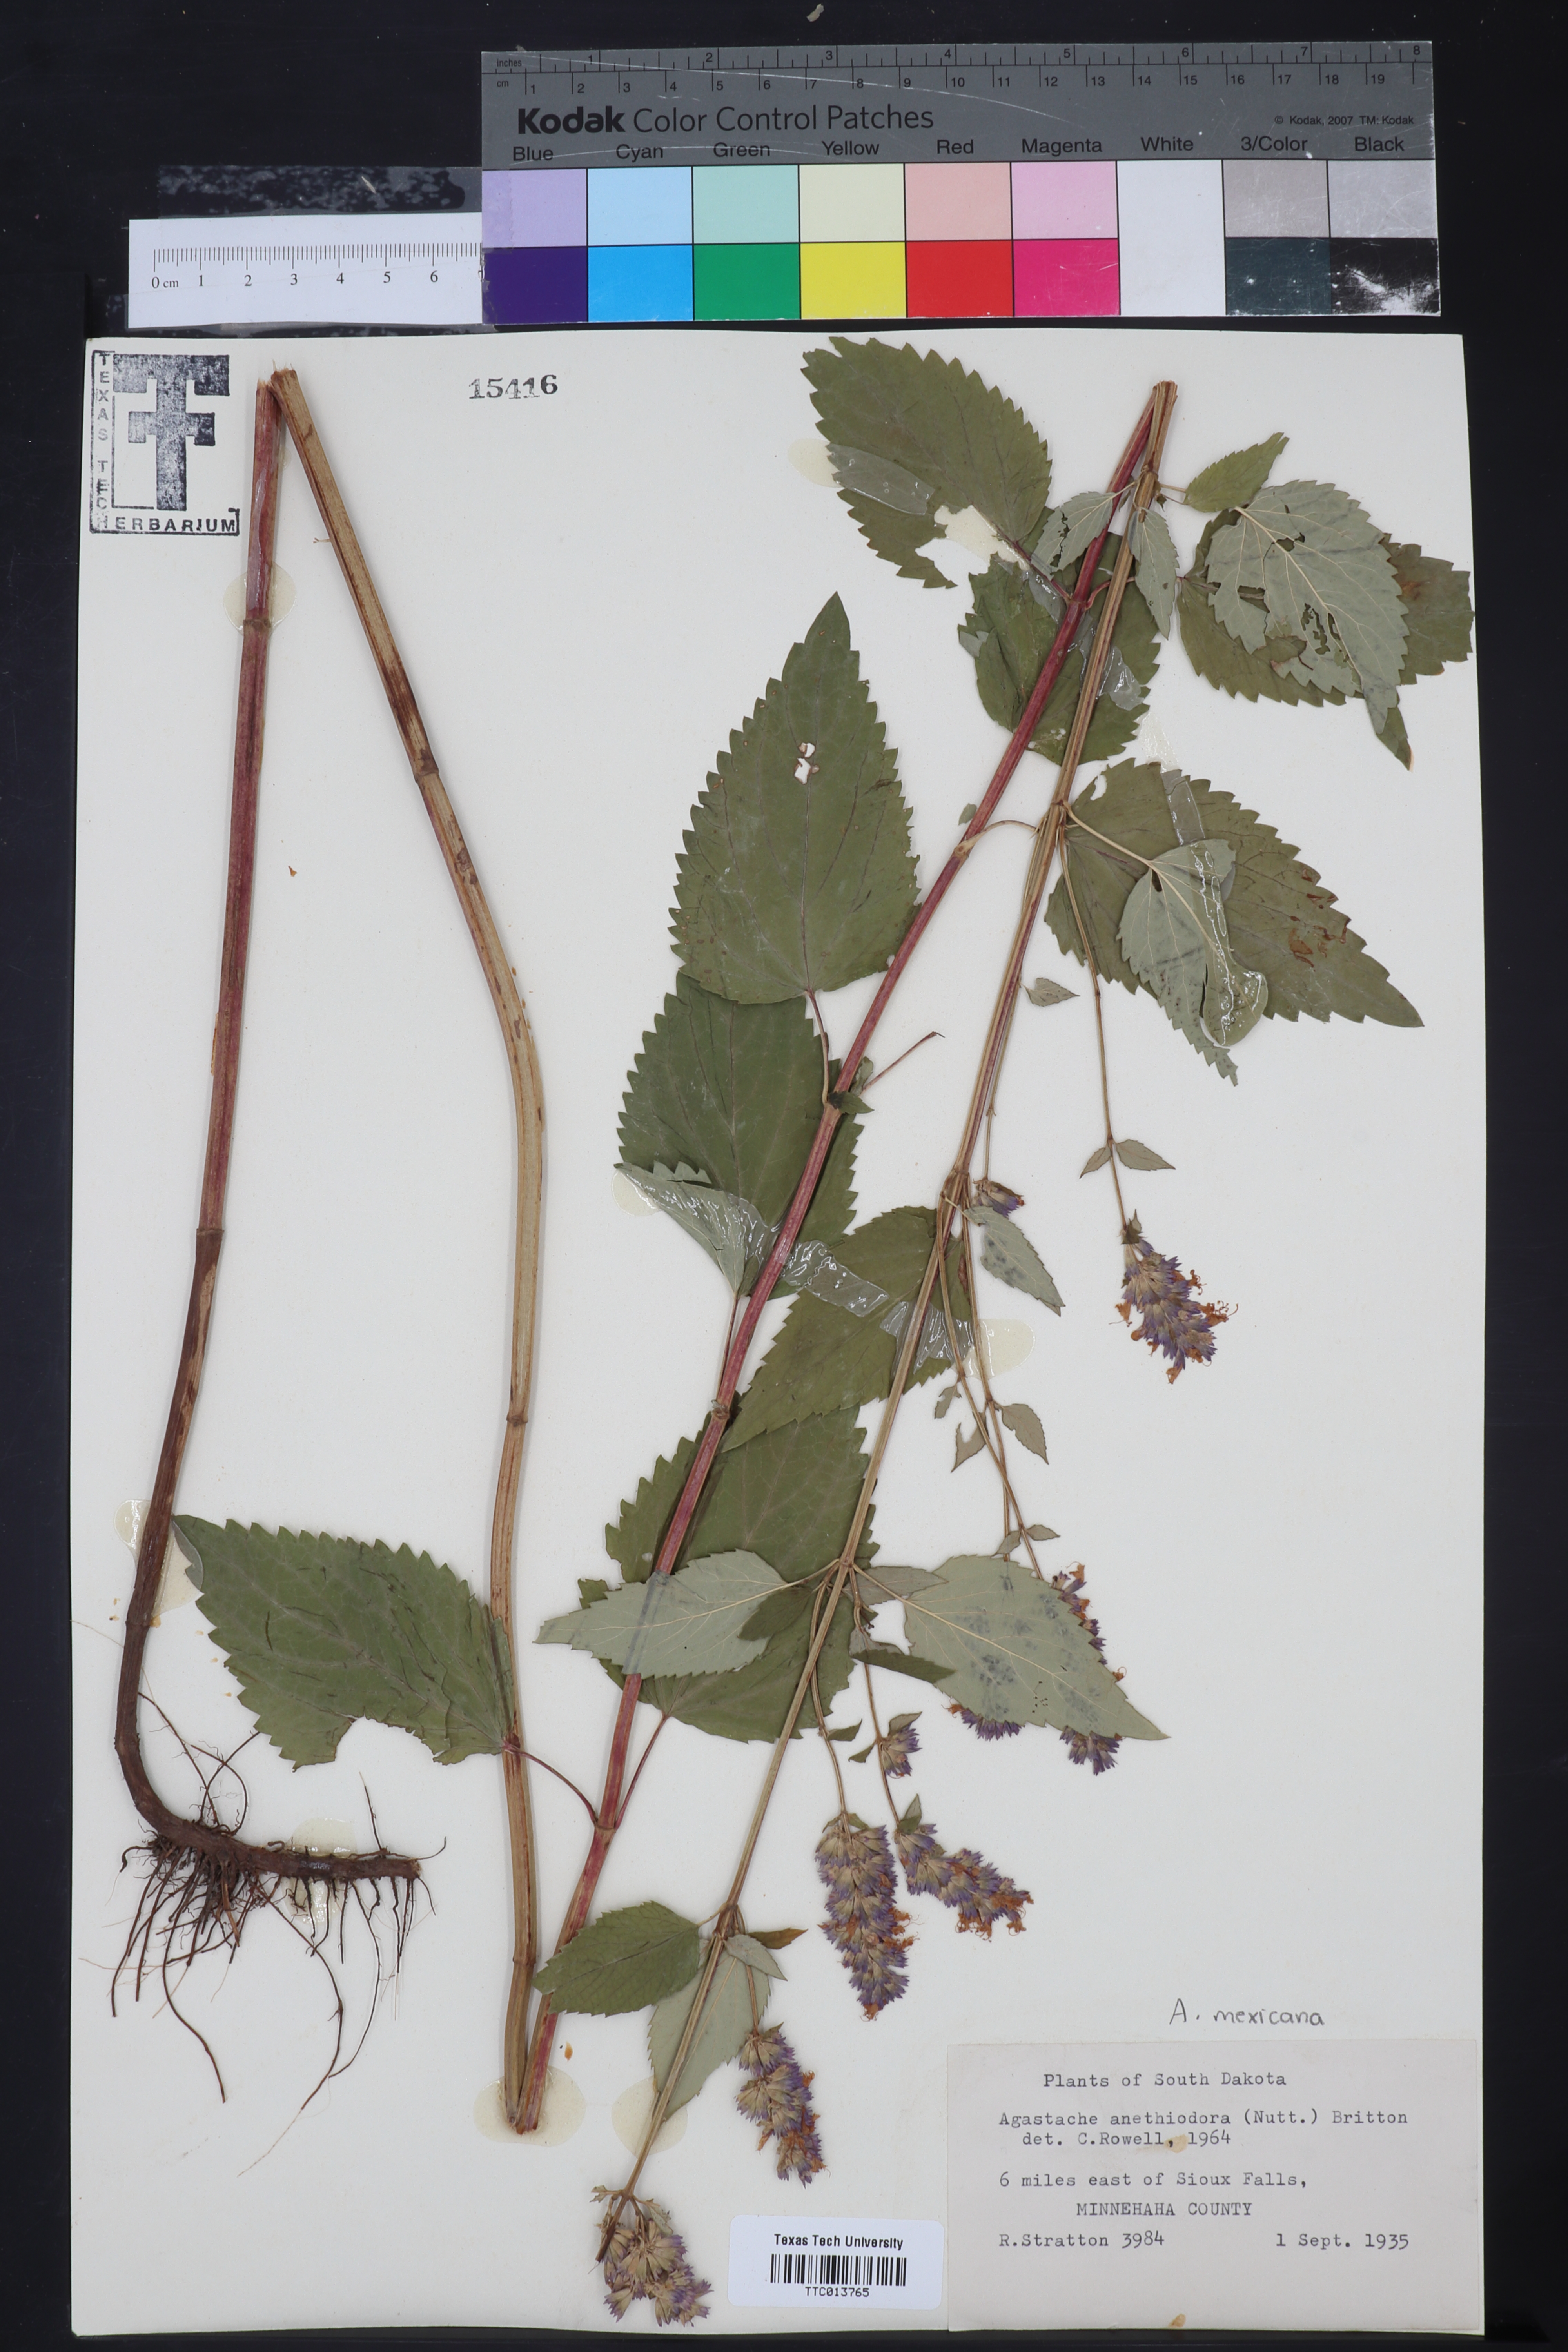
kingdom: Plantae
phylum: Tracheophyta
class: Magnoliopsida
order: Lamiales
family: Lamiaceae
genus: Agastache
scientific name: Agastache foeniculum
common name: Anise hyssop
